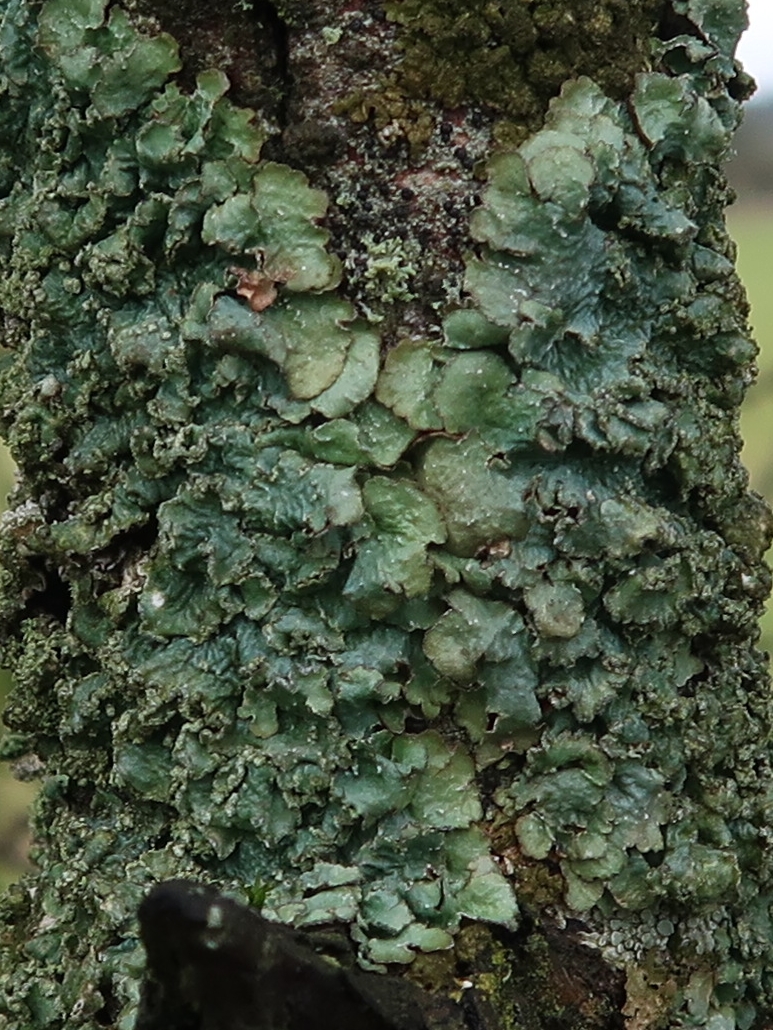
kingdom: Fungi
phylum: Ascomycota
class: Lecanoromycetes
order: Lecanorales
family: Parmeliaceae
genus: Punctelia
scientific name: Punctelia jeckeri
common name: randstøvet skållav
